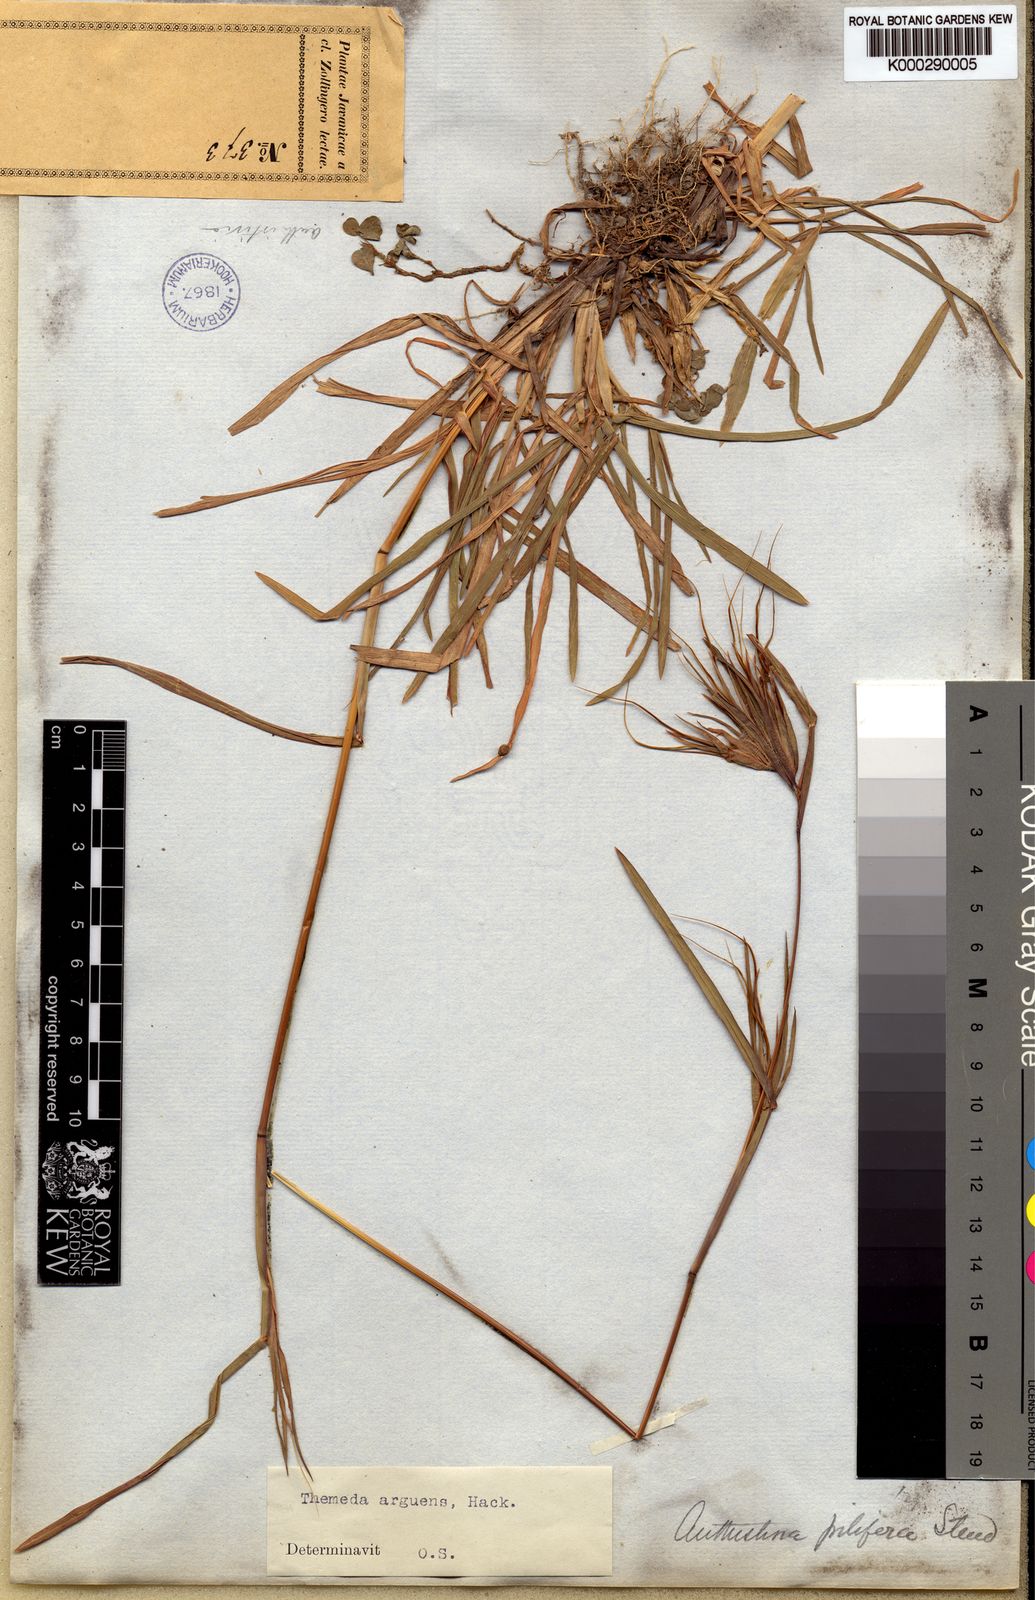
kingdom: Plantae
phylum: Tracheophyta
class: Liliopsida
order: Poales
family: Poaceae
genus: Themeda
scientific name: Themeda arguens
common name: Christmas grass
